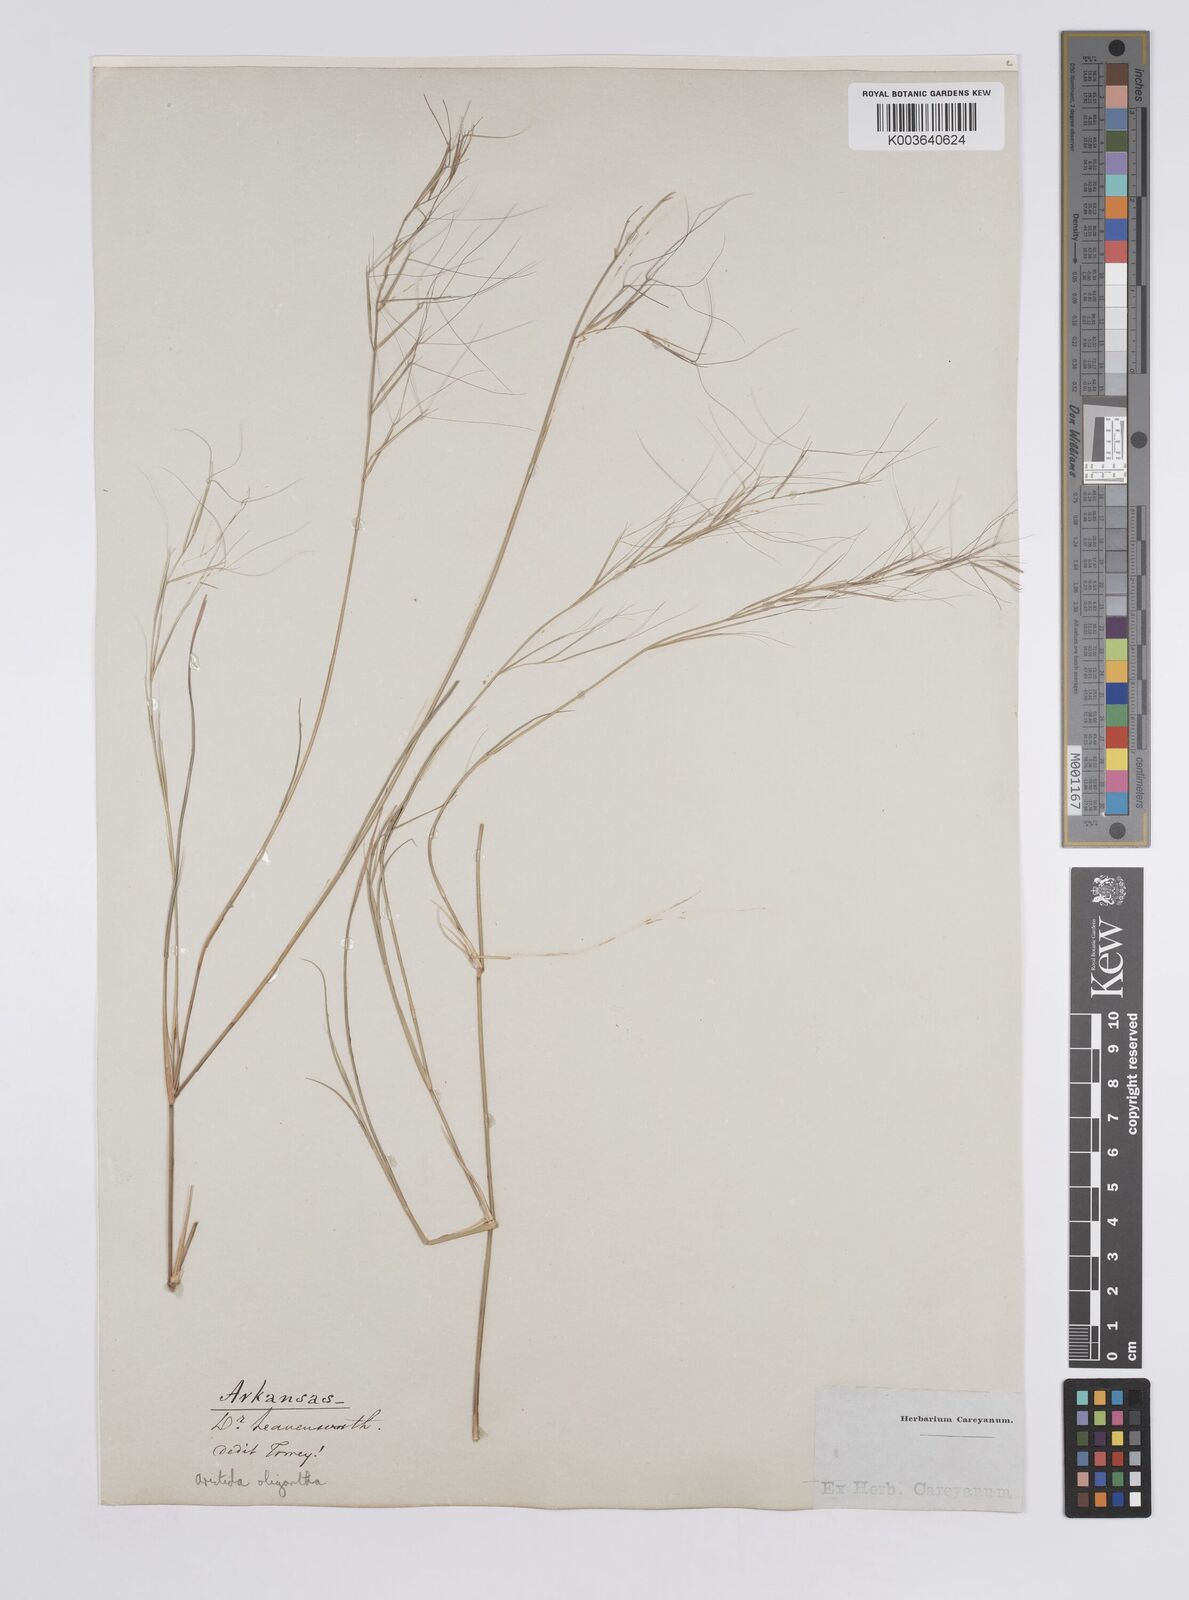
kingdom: Plantae
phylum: Tracheophyta
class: Liliopsida
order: Poales
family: Poaceae
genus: Aristida
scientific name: Aristida oligantha
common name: Few-flowered aristida
